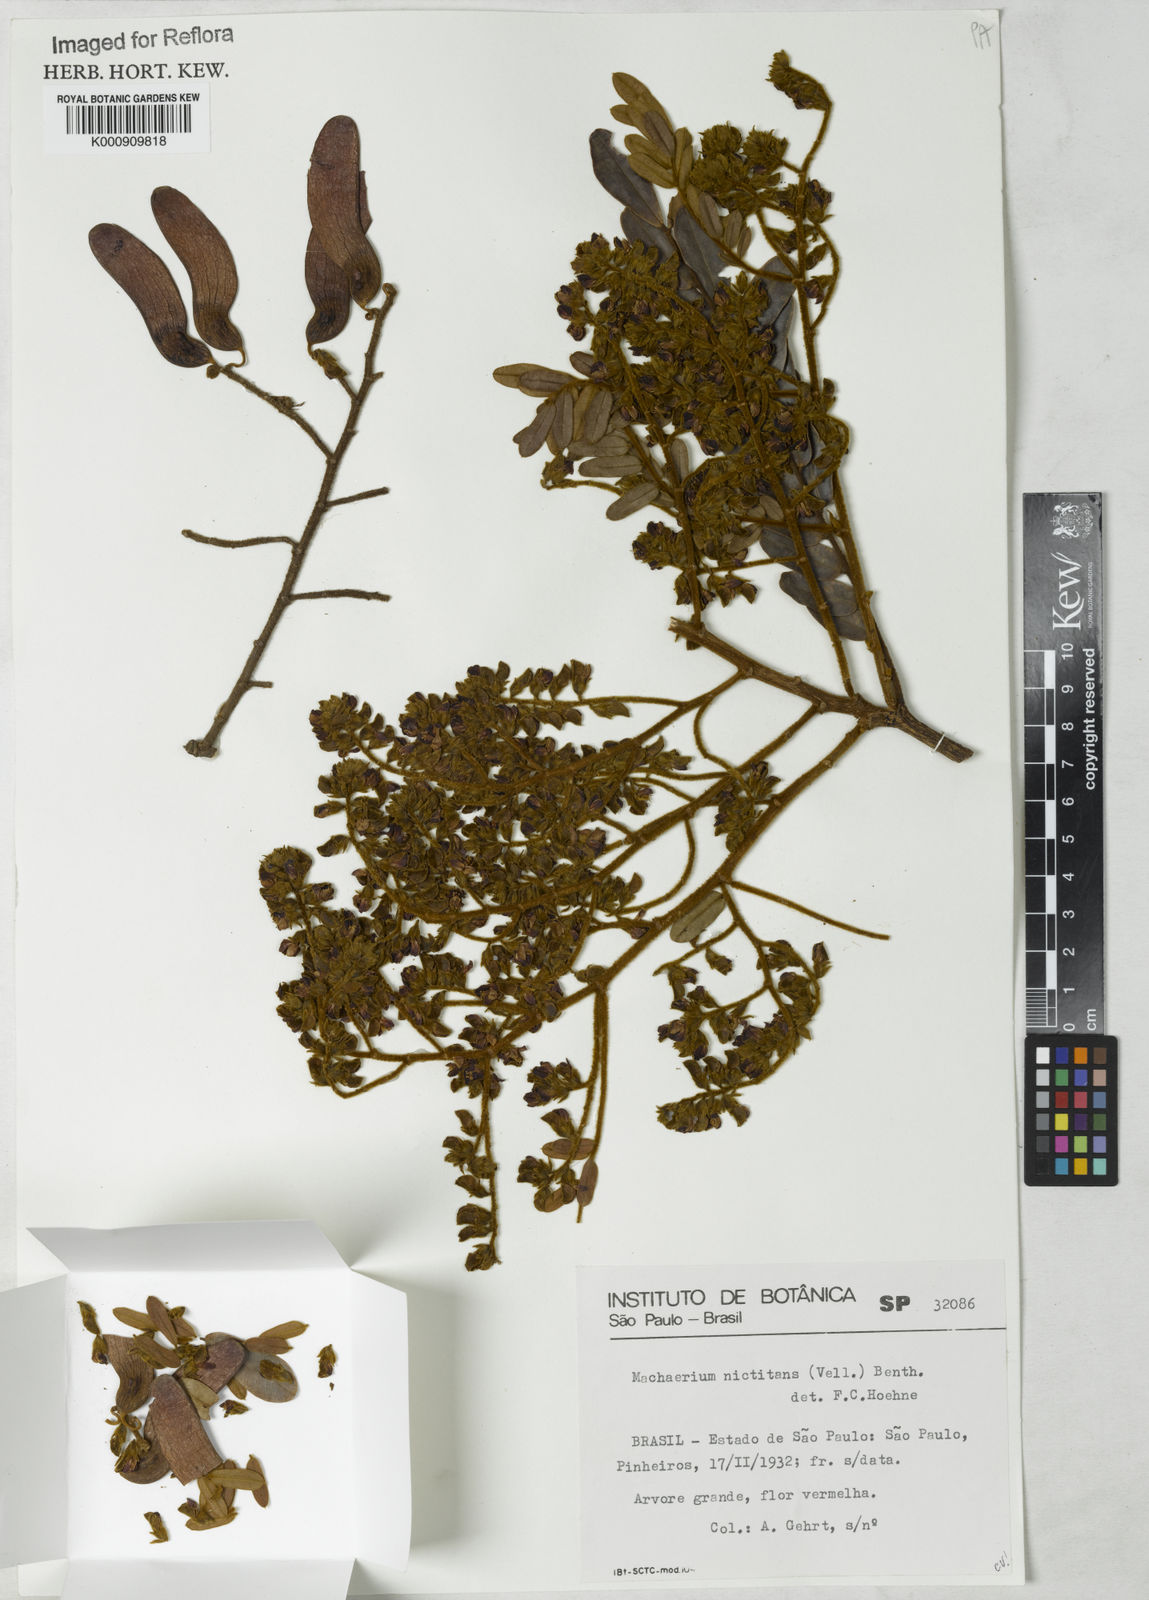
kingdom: Plantae
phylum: Tracheophyta
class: Magnoliopsida
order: Fabales
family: Fabaceae
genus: Machaerium
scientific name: Machaerium nyctitans
